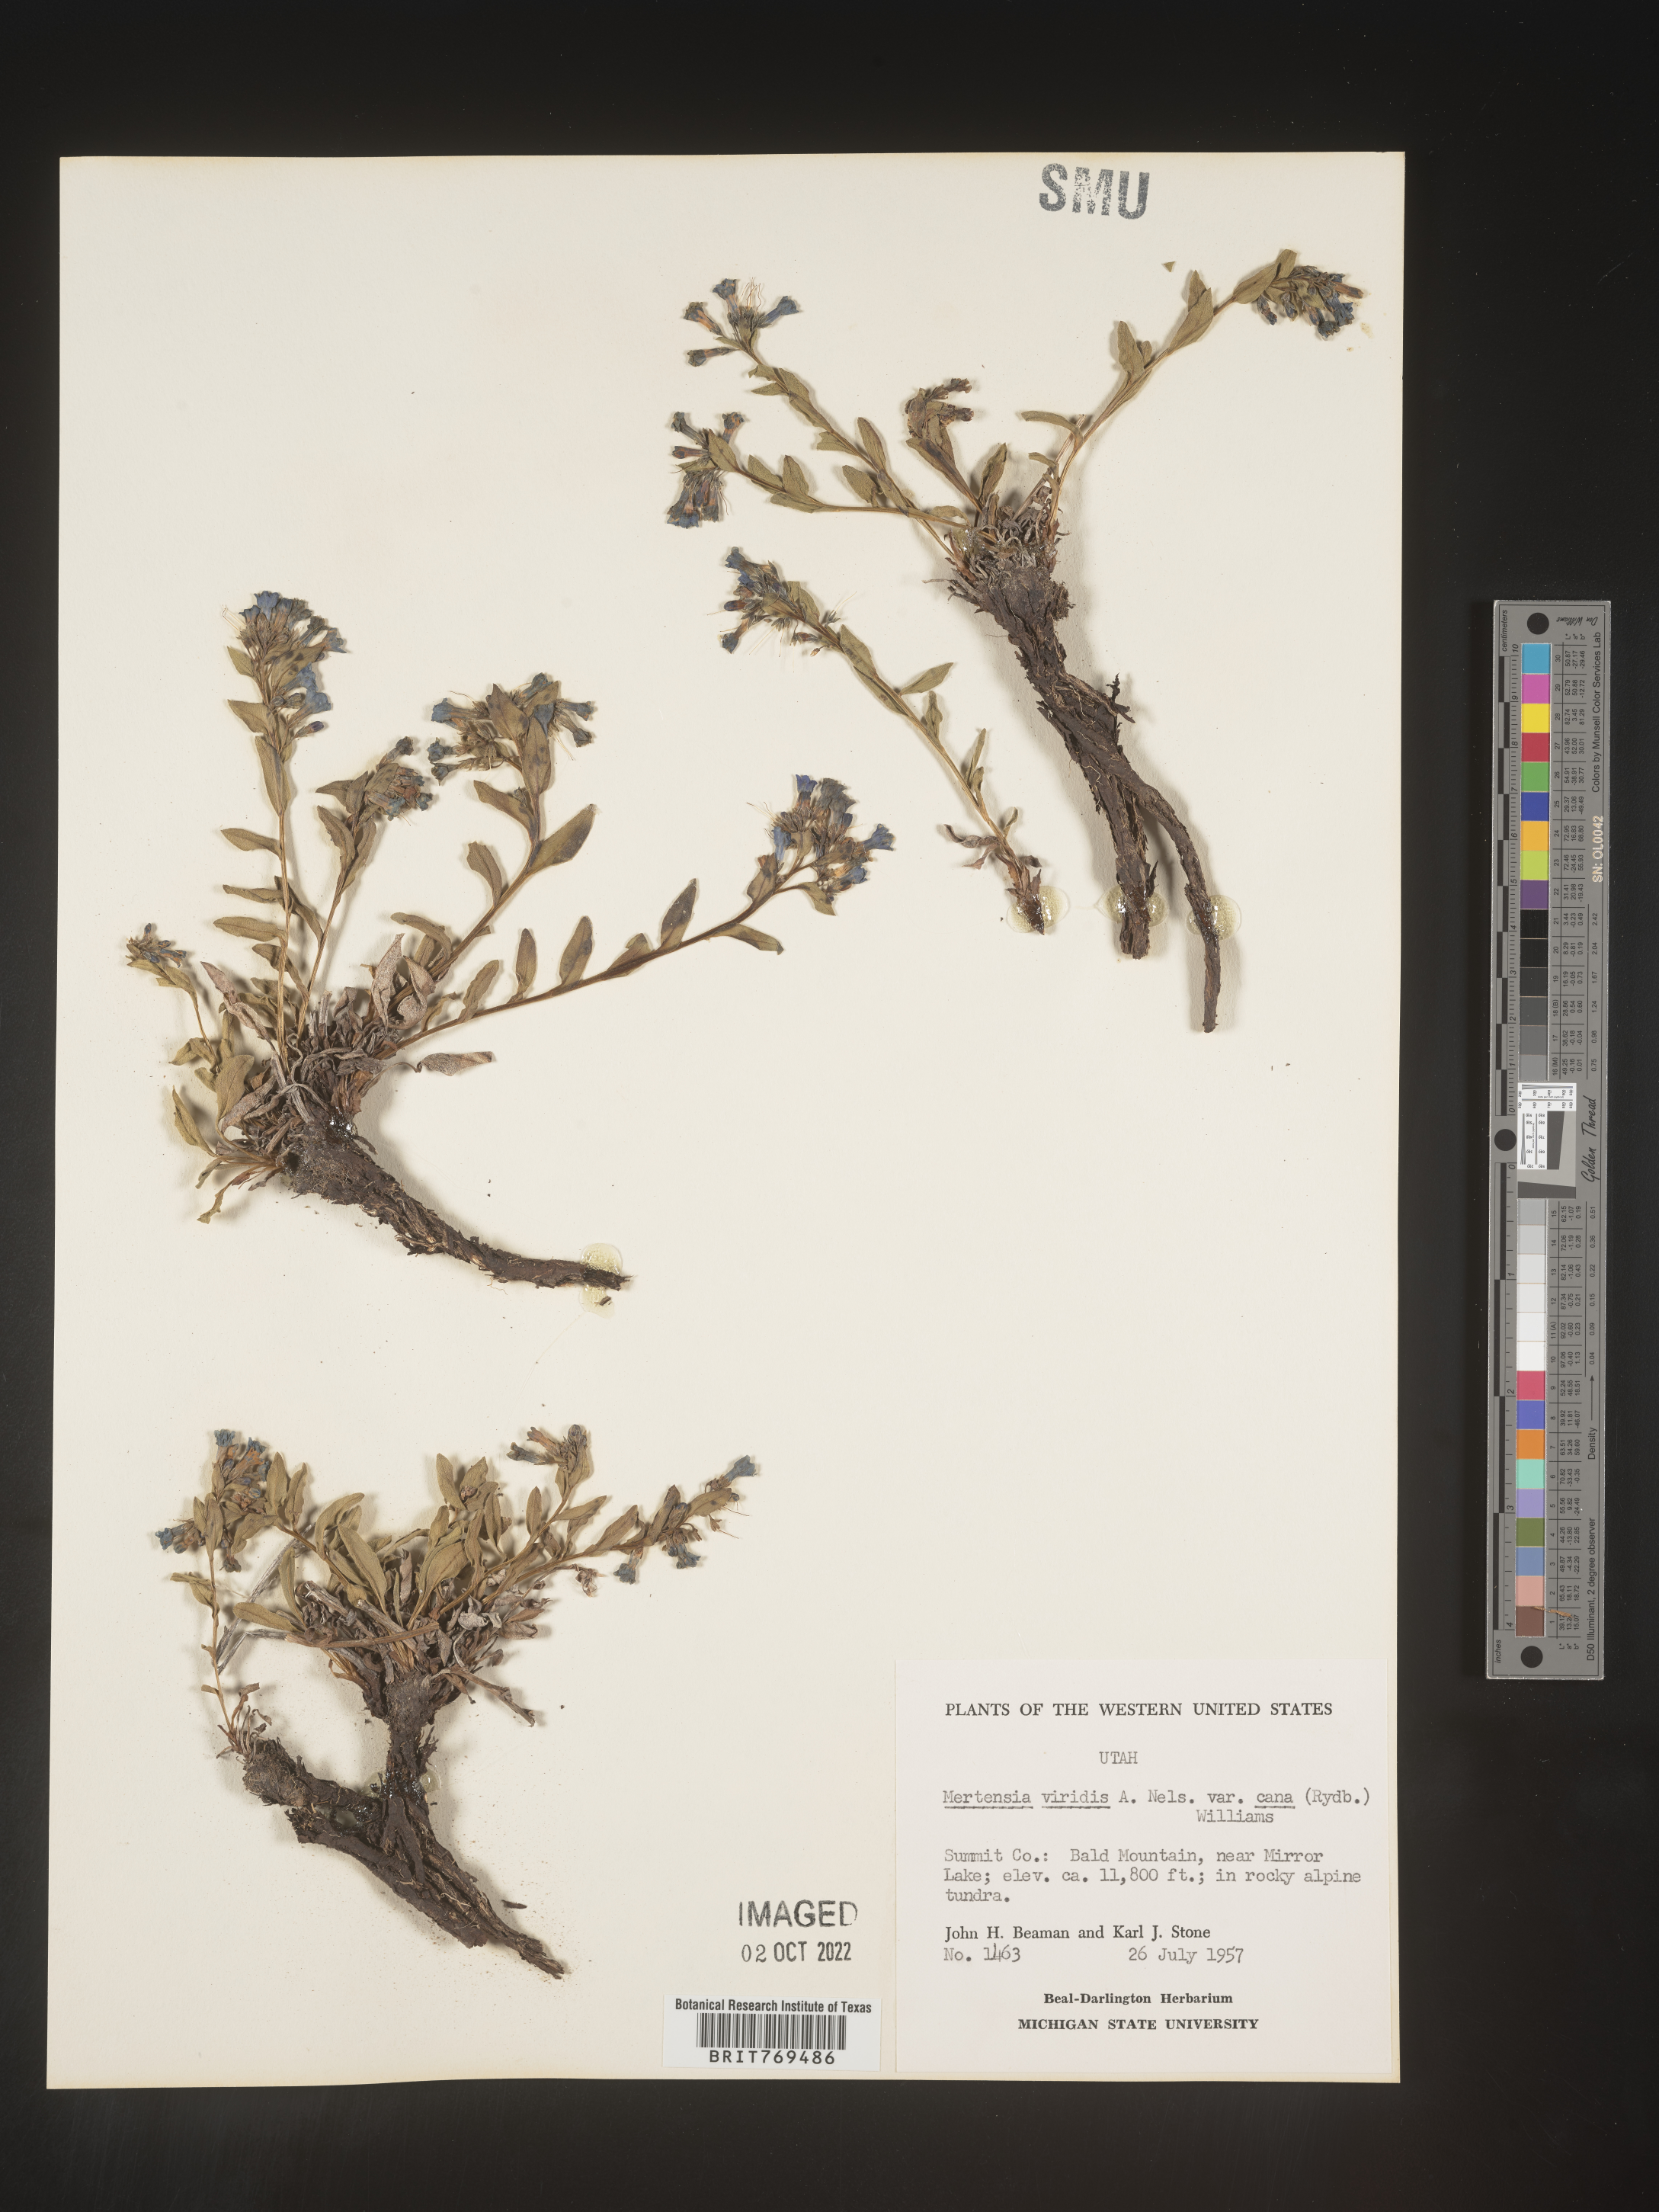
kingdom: Plantae
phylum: Tracheophyta
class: Magnoliopsida
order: Boraginales
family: Boraginaceae
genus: Mertensia
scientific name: Mertensia viridis
